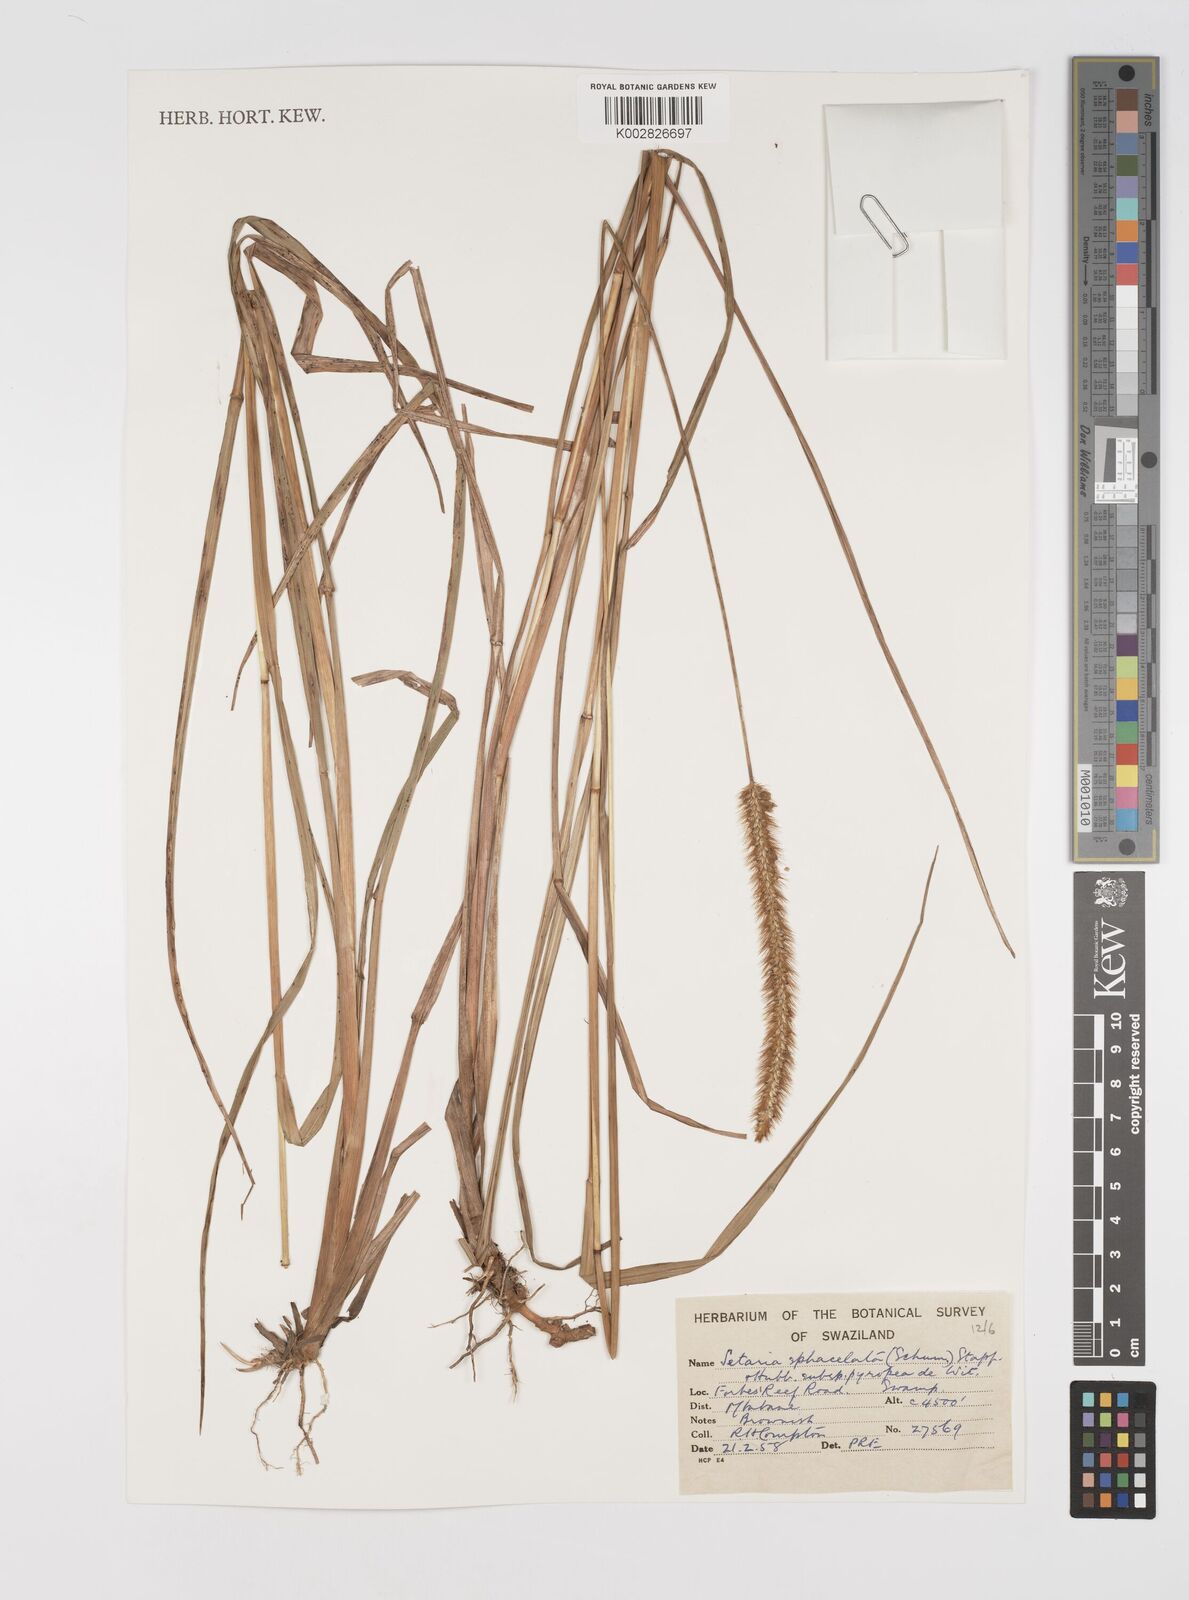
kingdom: Plantae
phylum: Tracheophyta
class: Liliopsida
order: Poales
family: Poaceae
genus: Setaria
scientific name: Setaria sphacelata
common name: African bristlegrass
